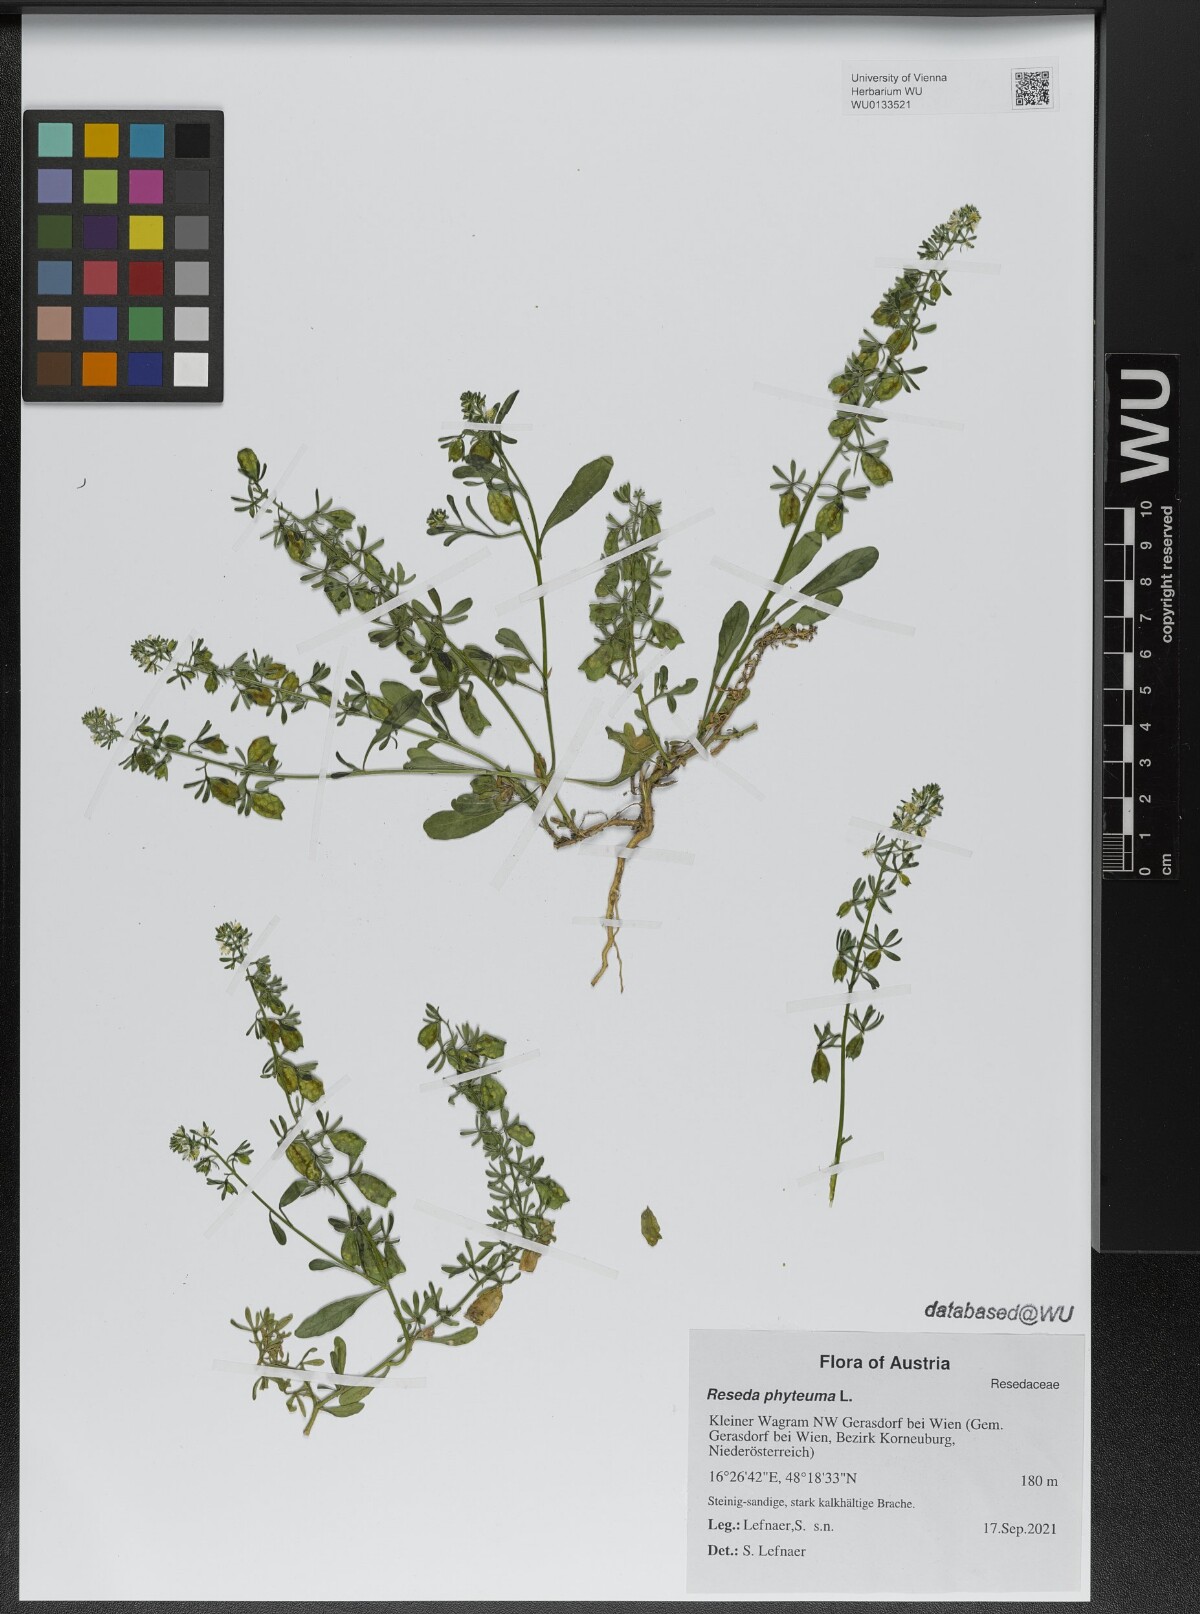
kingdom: Plantae
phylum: Tracheophyta
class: Magnoliopsida
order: Brassicales
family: Resedaceae
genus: Reseda
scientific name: Reseda phyteuma
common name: Corn mignonette
